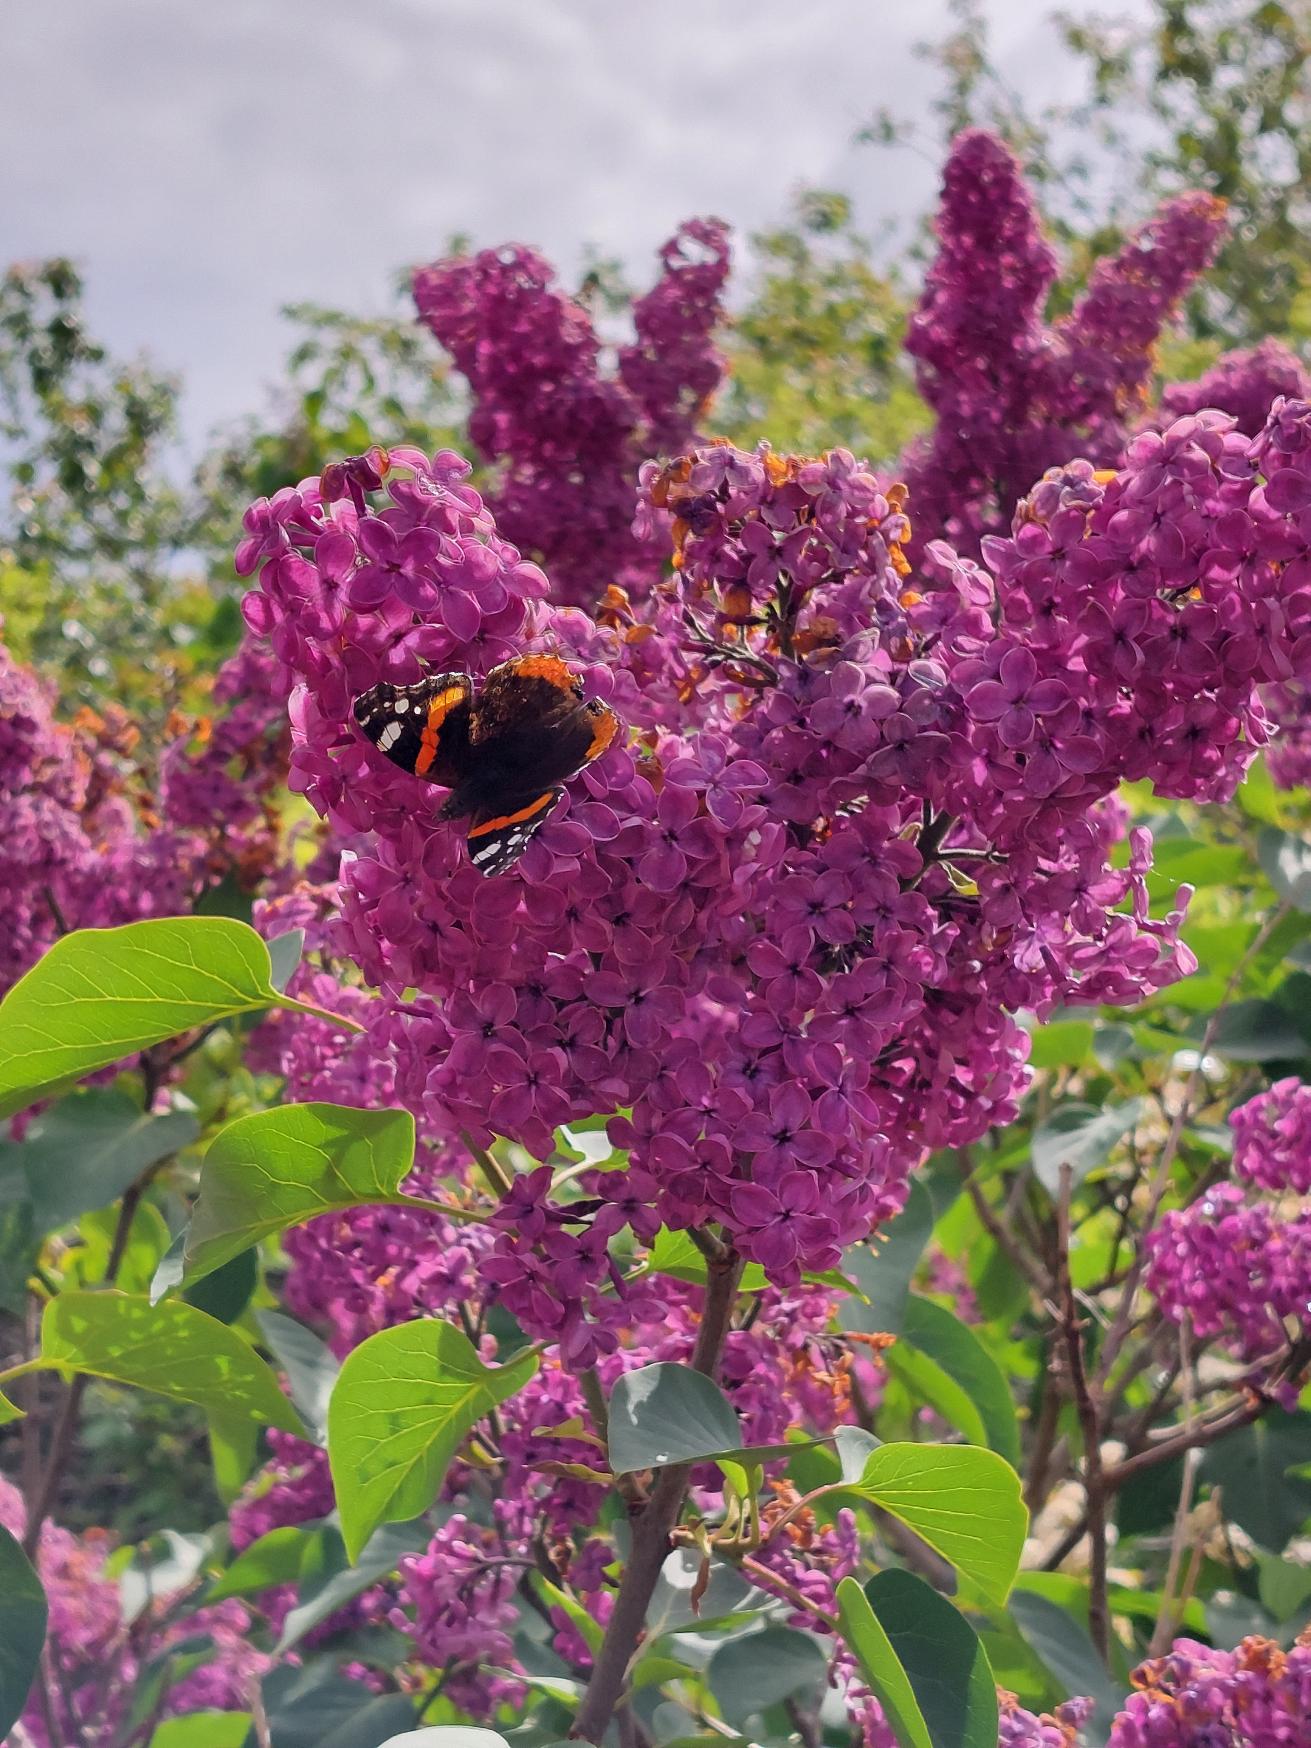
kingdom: Animalia
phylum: Arthropoda
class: Insecta
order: Lepidoptera
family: Nymphalidae
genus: Vanessa
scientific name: Vanessa atalanta
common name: Admiral
